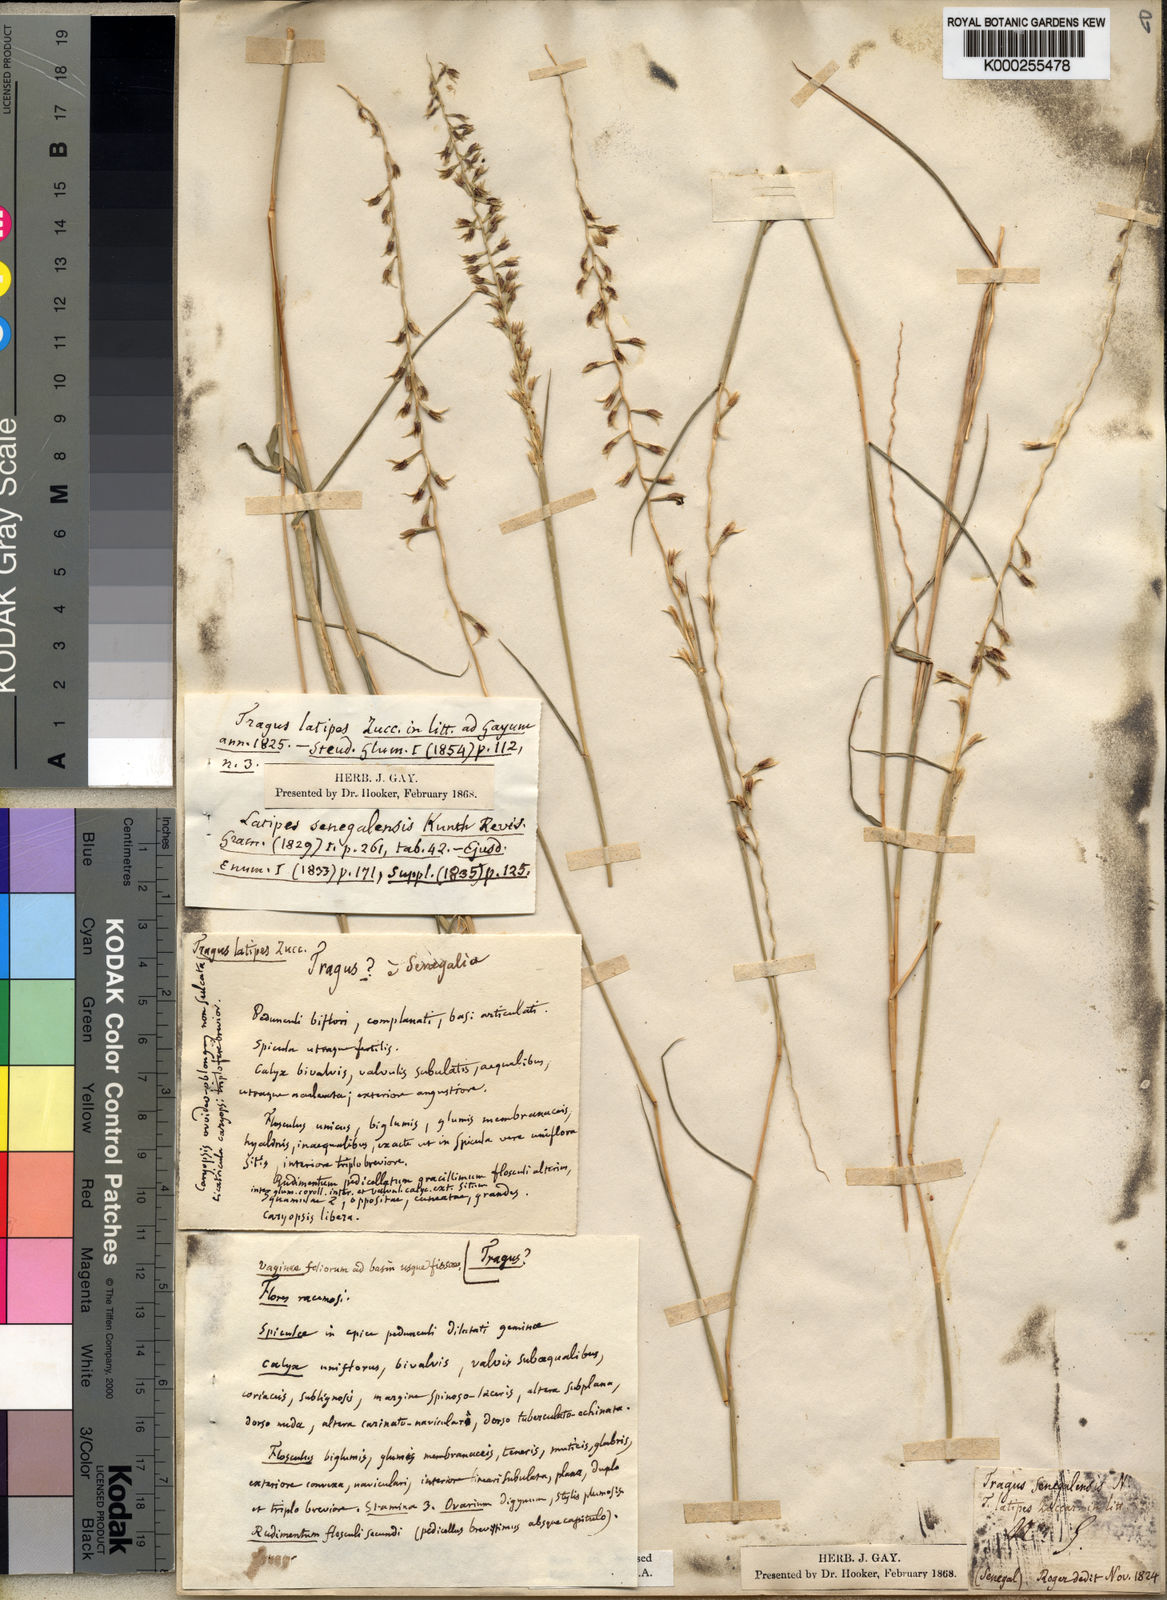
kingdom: Plantae
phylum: Tracheophyta
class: Liliopsida
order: Poales
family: Poaceae
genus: Leptothrium
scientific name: Leptothrium
